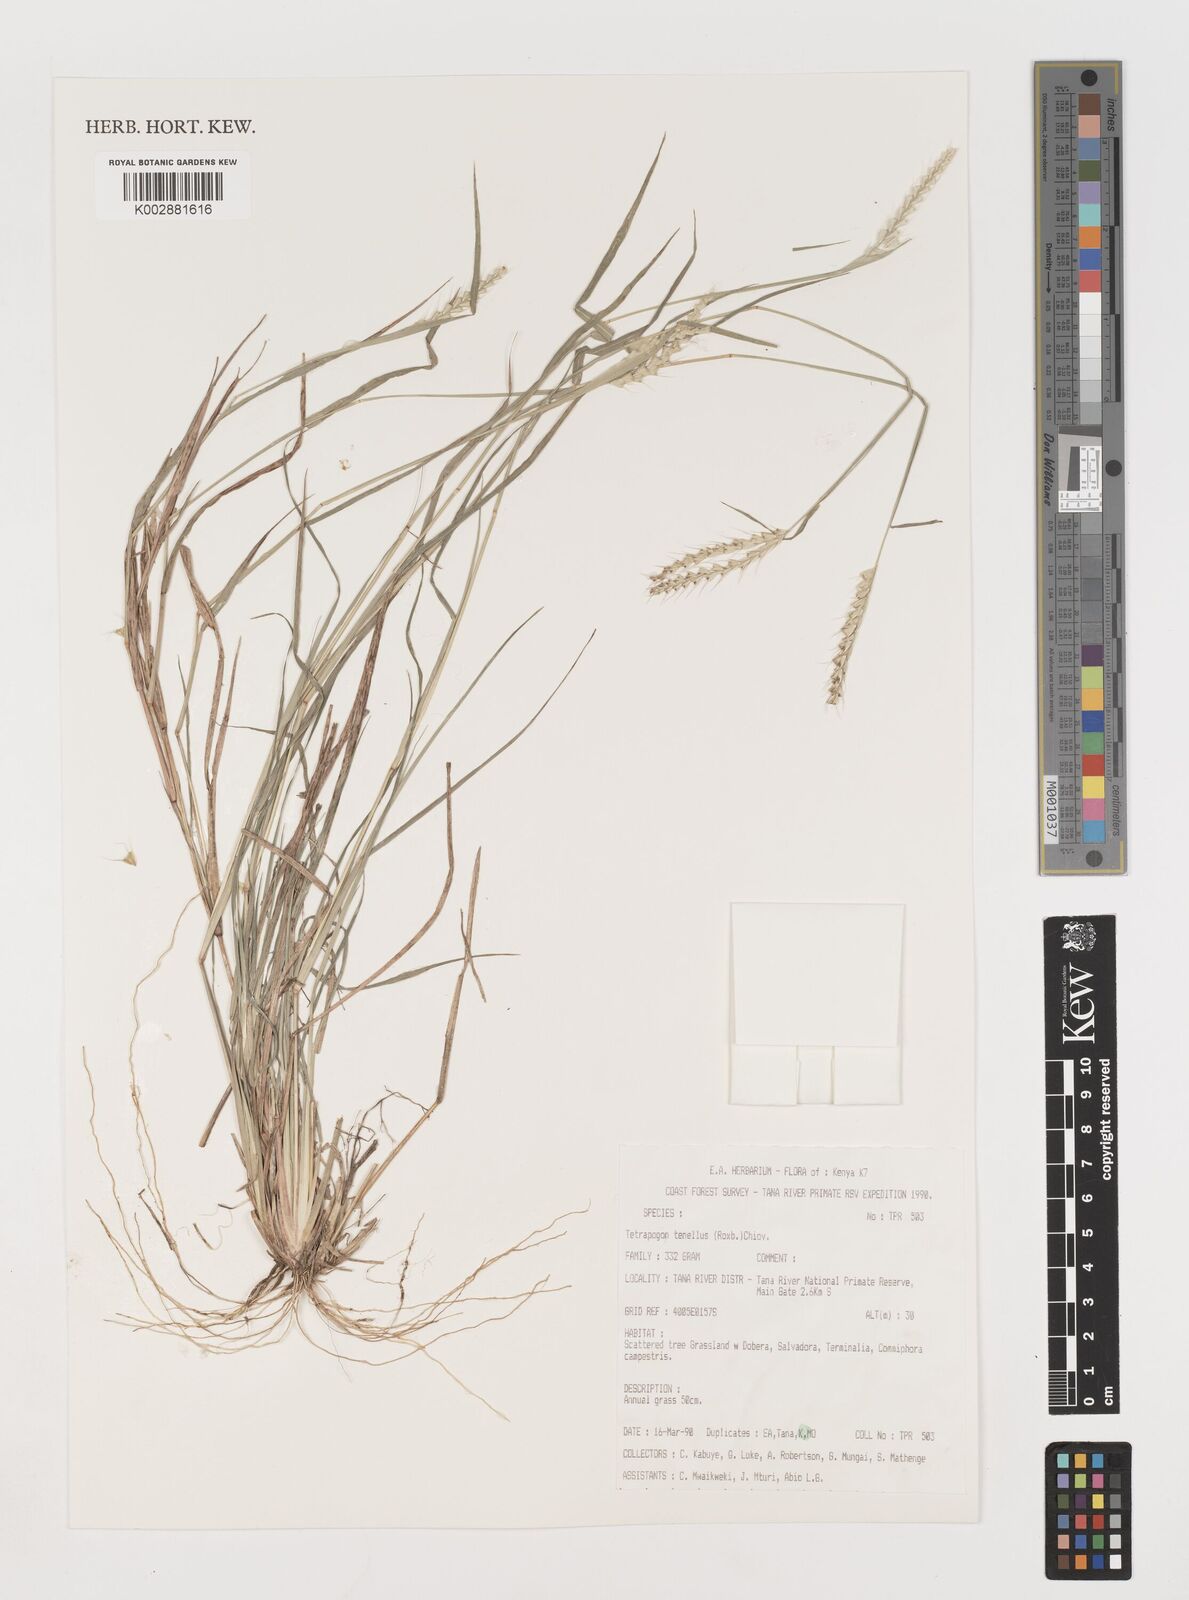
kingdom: Plantae
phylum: Tracheophyta
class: Liliopsida
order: Poales
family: Poaceae
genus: Tetrapogon
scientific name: Tetrapogon tenellus
